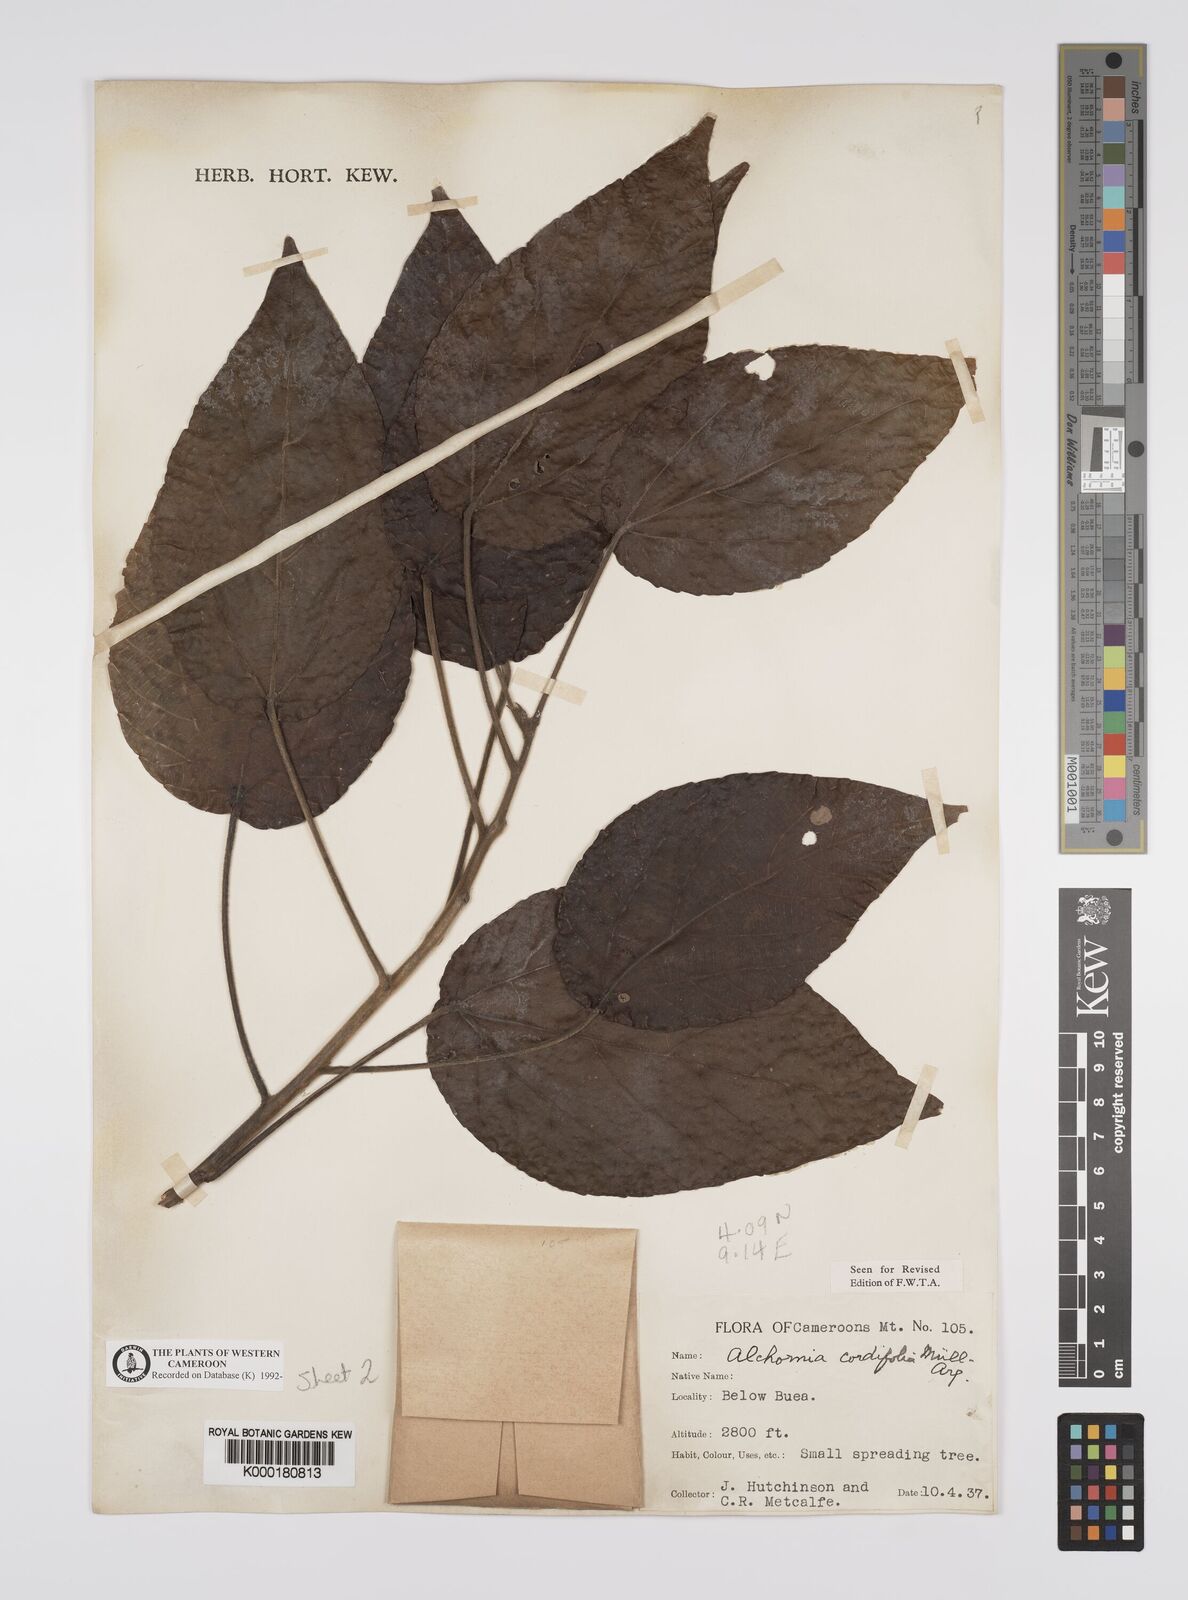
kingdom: Plantae
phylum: Tracheophyta
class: Magnoliopsida
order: Malpighiales
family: Euphorbiaceae
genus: Alchornea
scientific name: Alchornea
